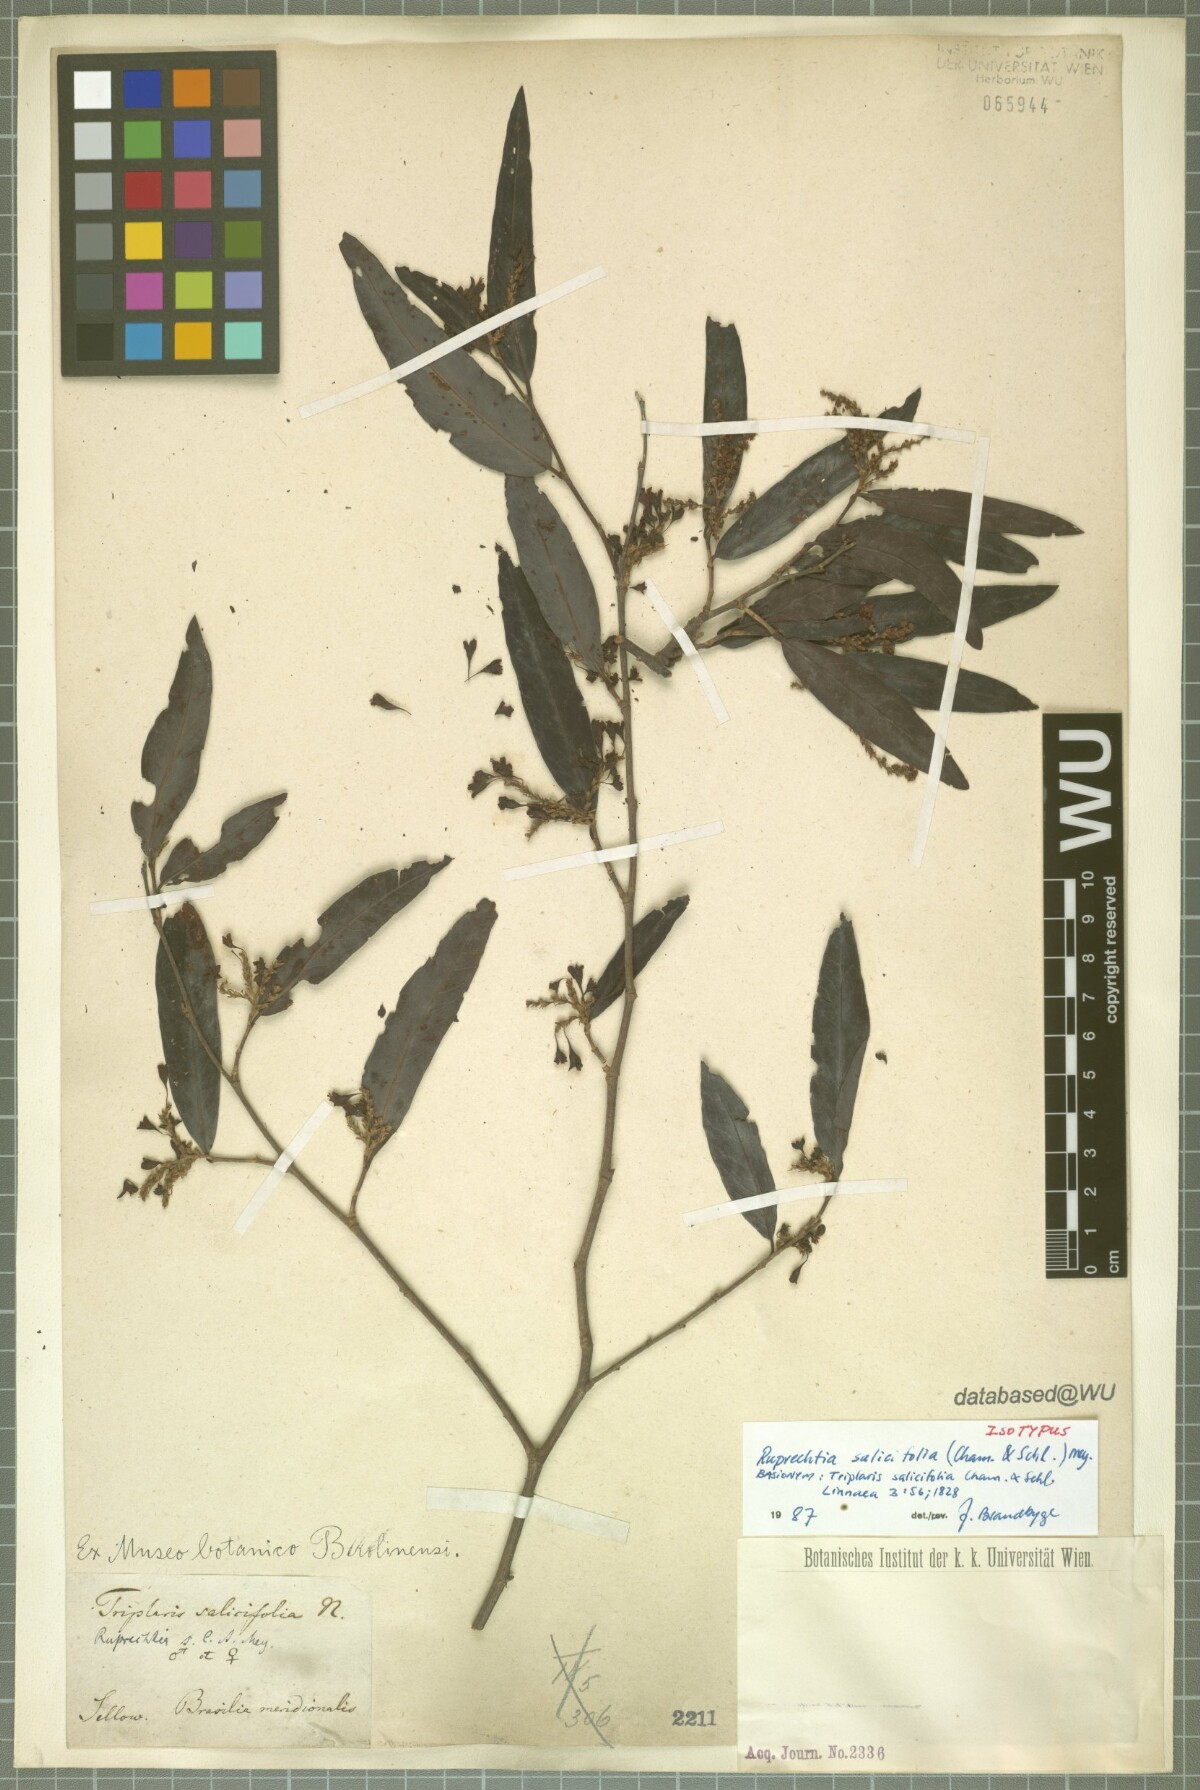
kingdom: Plantae
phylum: Tracheophyta
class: Magnoliopsida
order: Caryophyllales
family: Polygonaceae
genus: Ruprechtia
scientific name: Ruprechtia salicifolia
